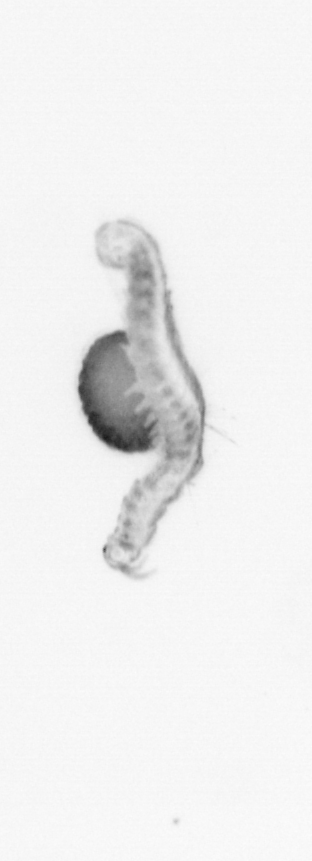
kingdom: Animalia
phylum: Annelida
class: Polychaeta
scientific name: Polychaeta
